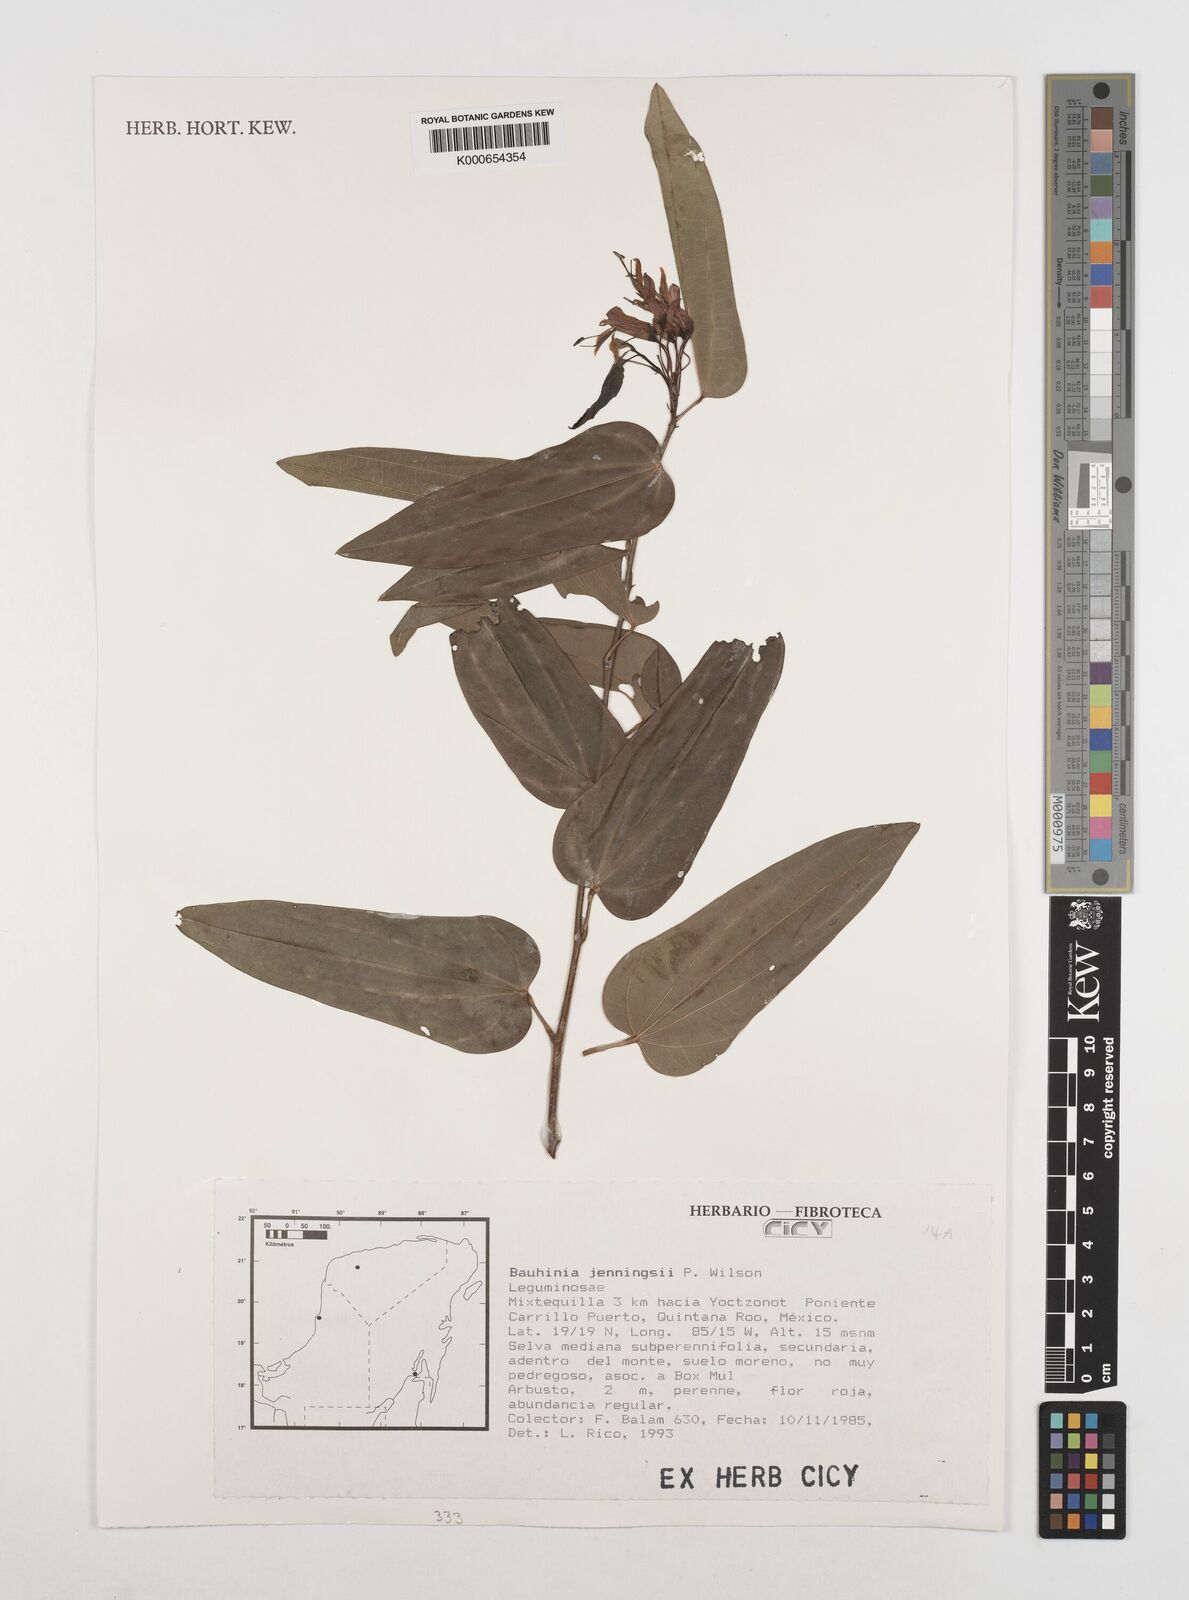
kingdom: Plantae
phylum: Tracheophyta
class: Magnoliopsida
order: Fabales
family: Fabaceae
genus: Bauhinia
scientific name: Bauhinia jenningsii
